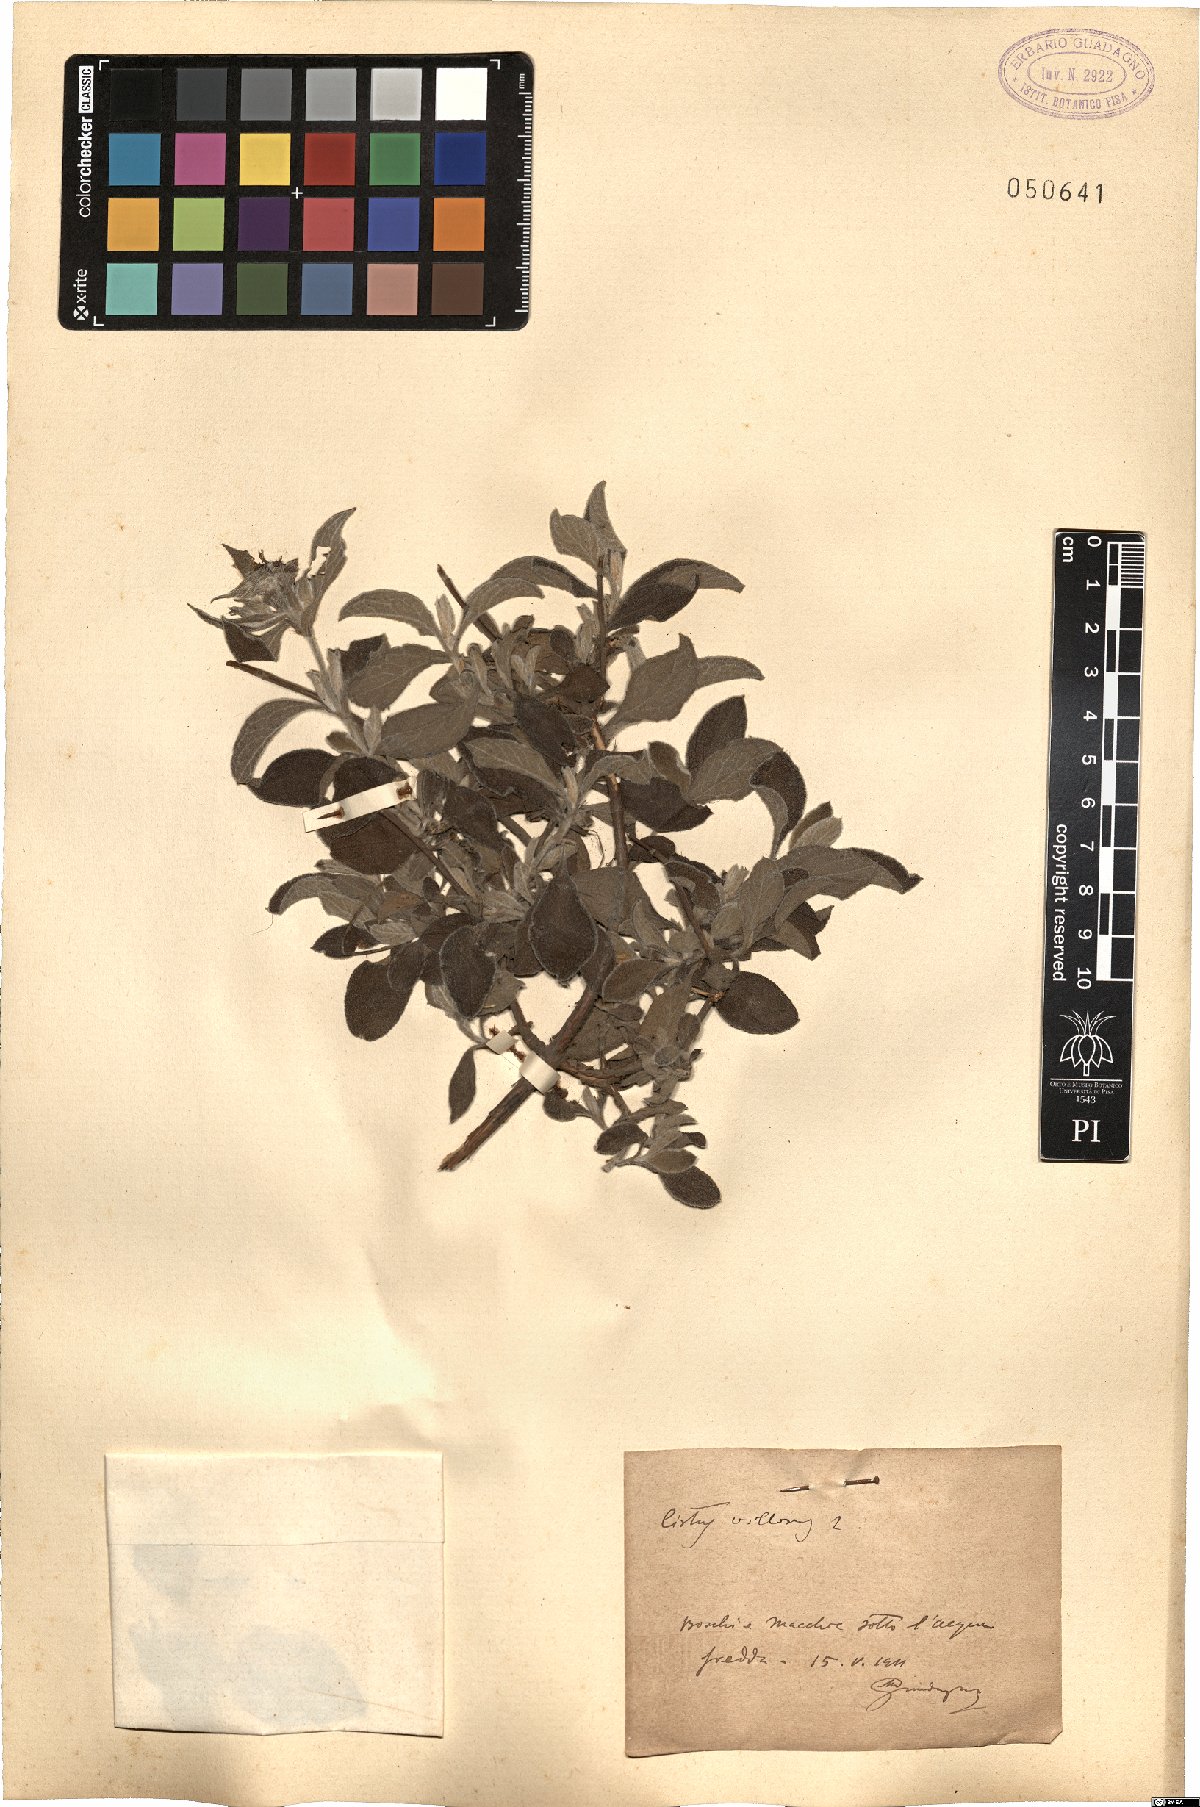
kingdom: Plantae
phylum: Tracheophyta
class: Magnoliopsida
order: Malvales
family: Cistaceae
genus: Cistus
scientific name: Cistus creticus
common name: Cretan rockrose
